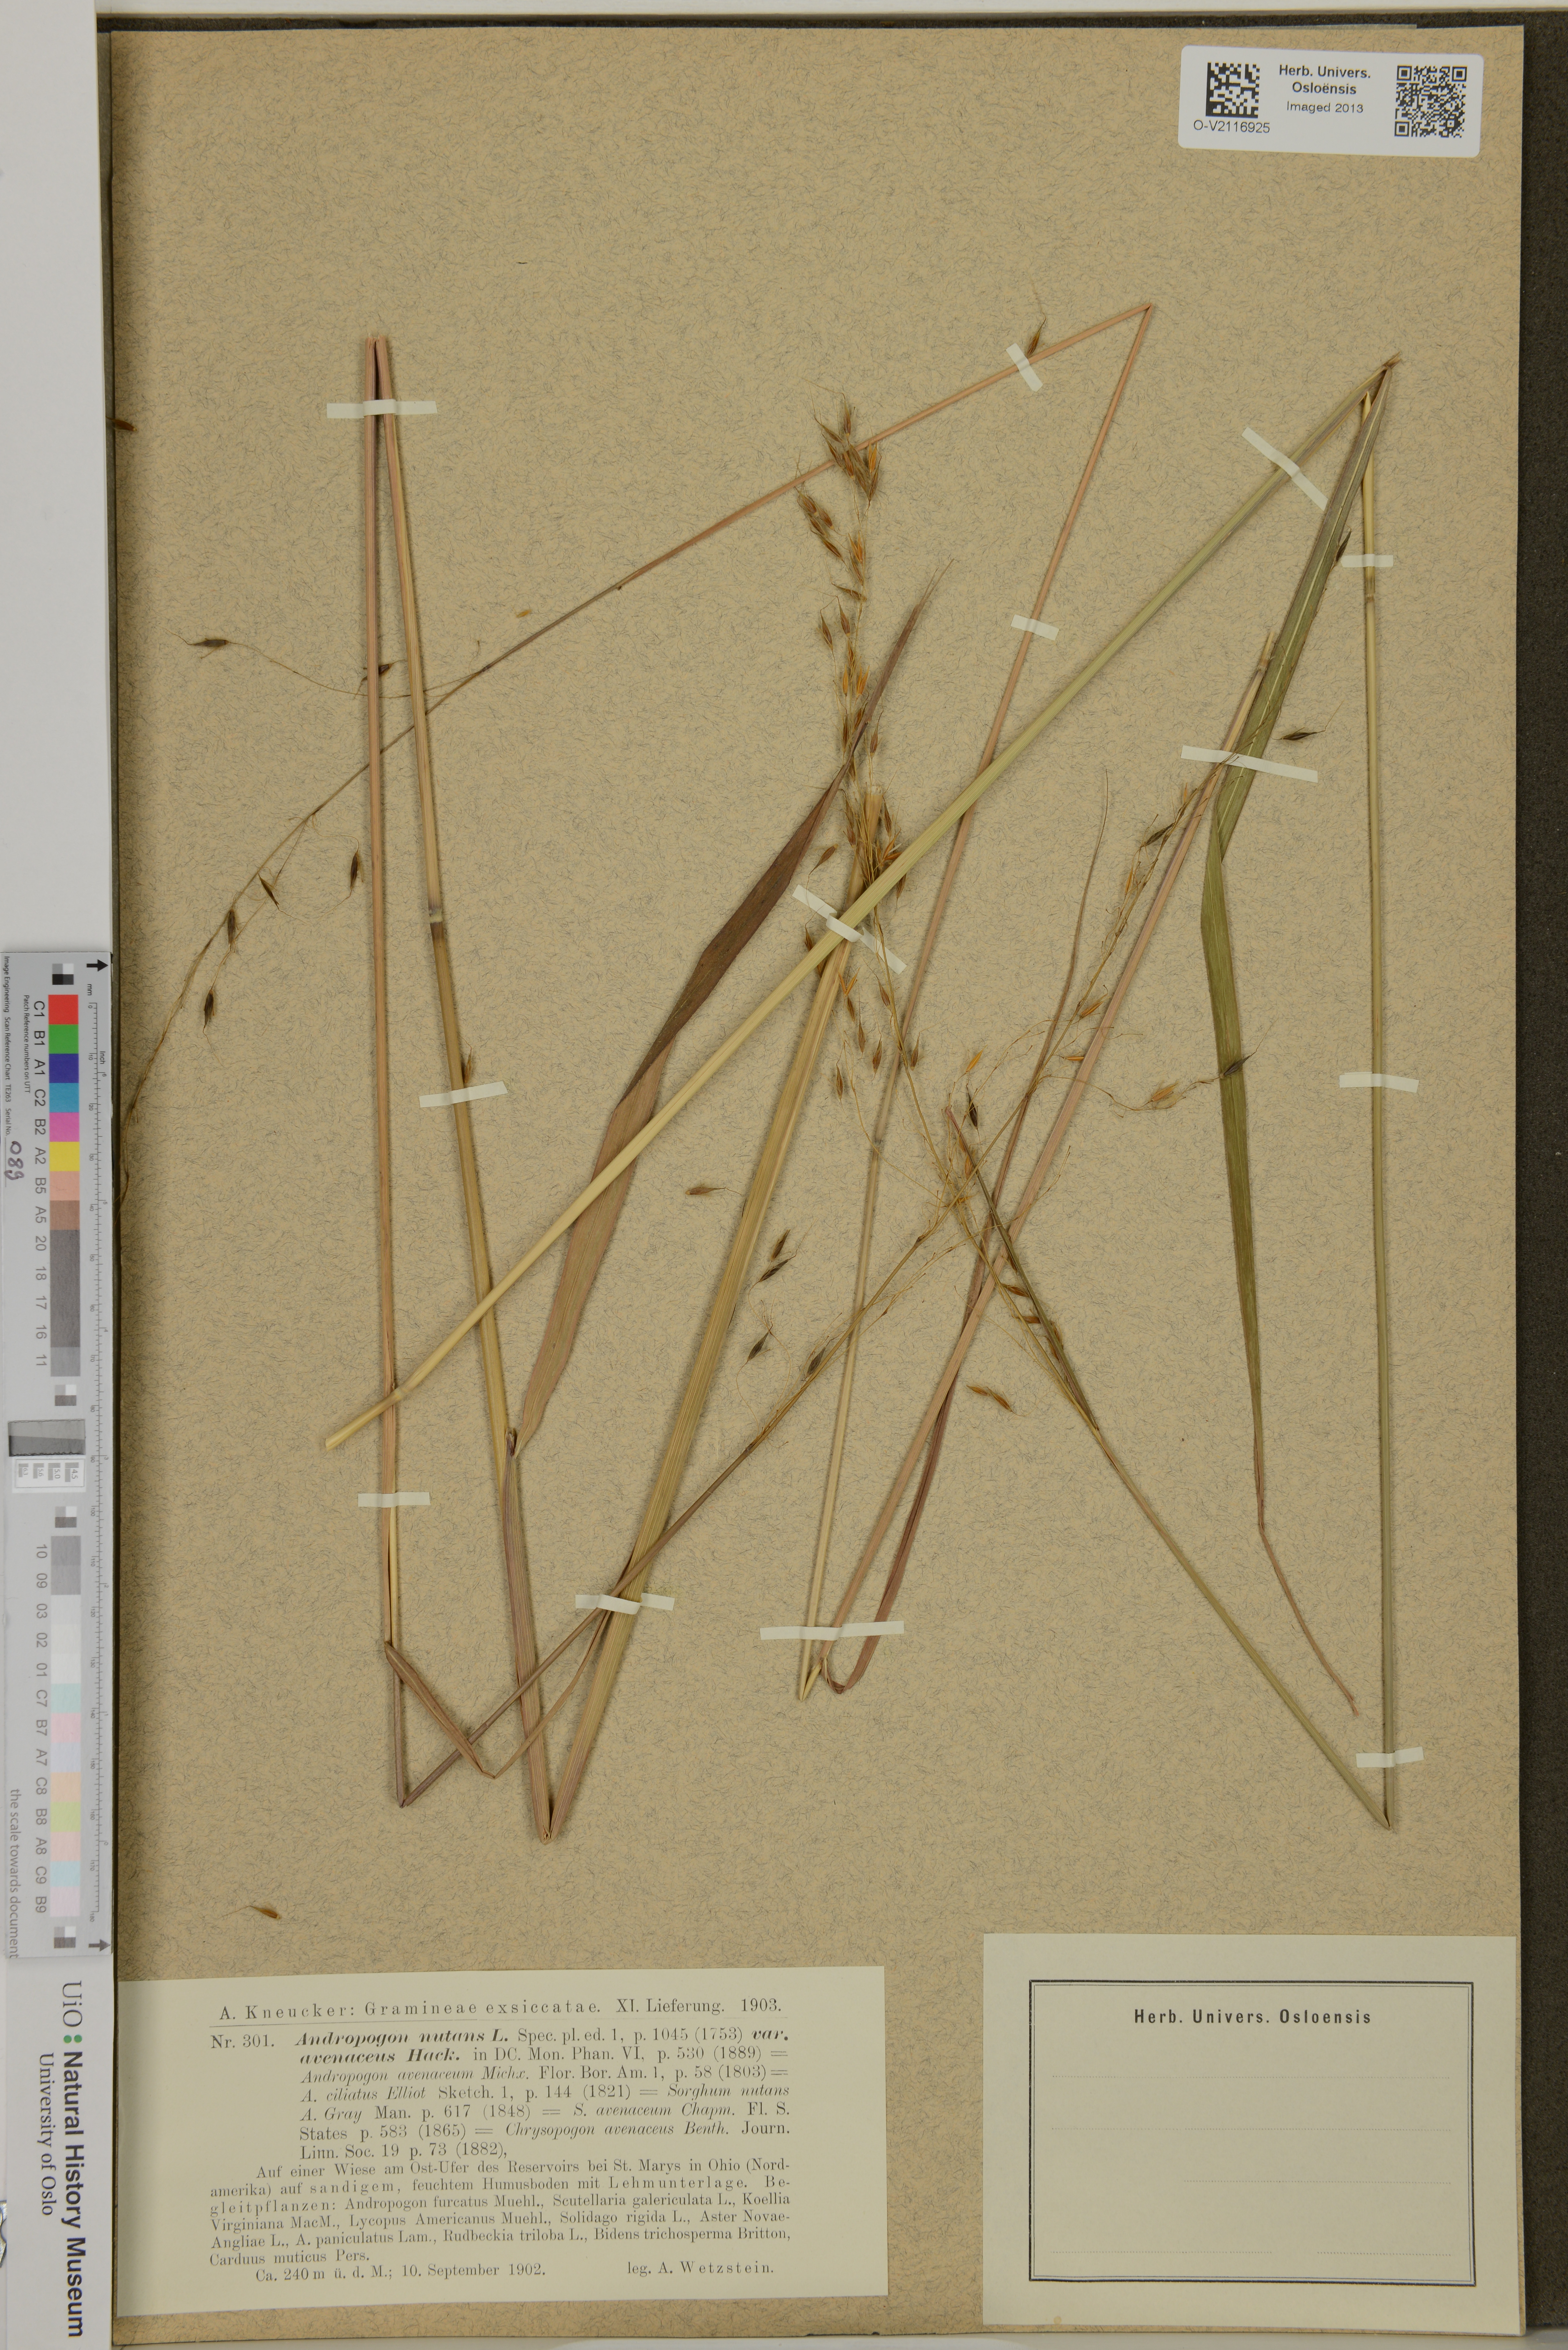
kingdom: Plantae
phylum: Tracheophyta
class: Liliopsida
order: Poales
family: Poaceae
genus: Sorghastrum
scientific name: Sorghastrum
